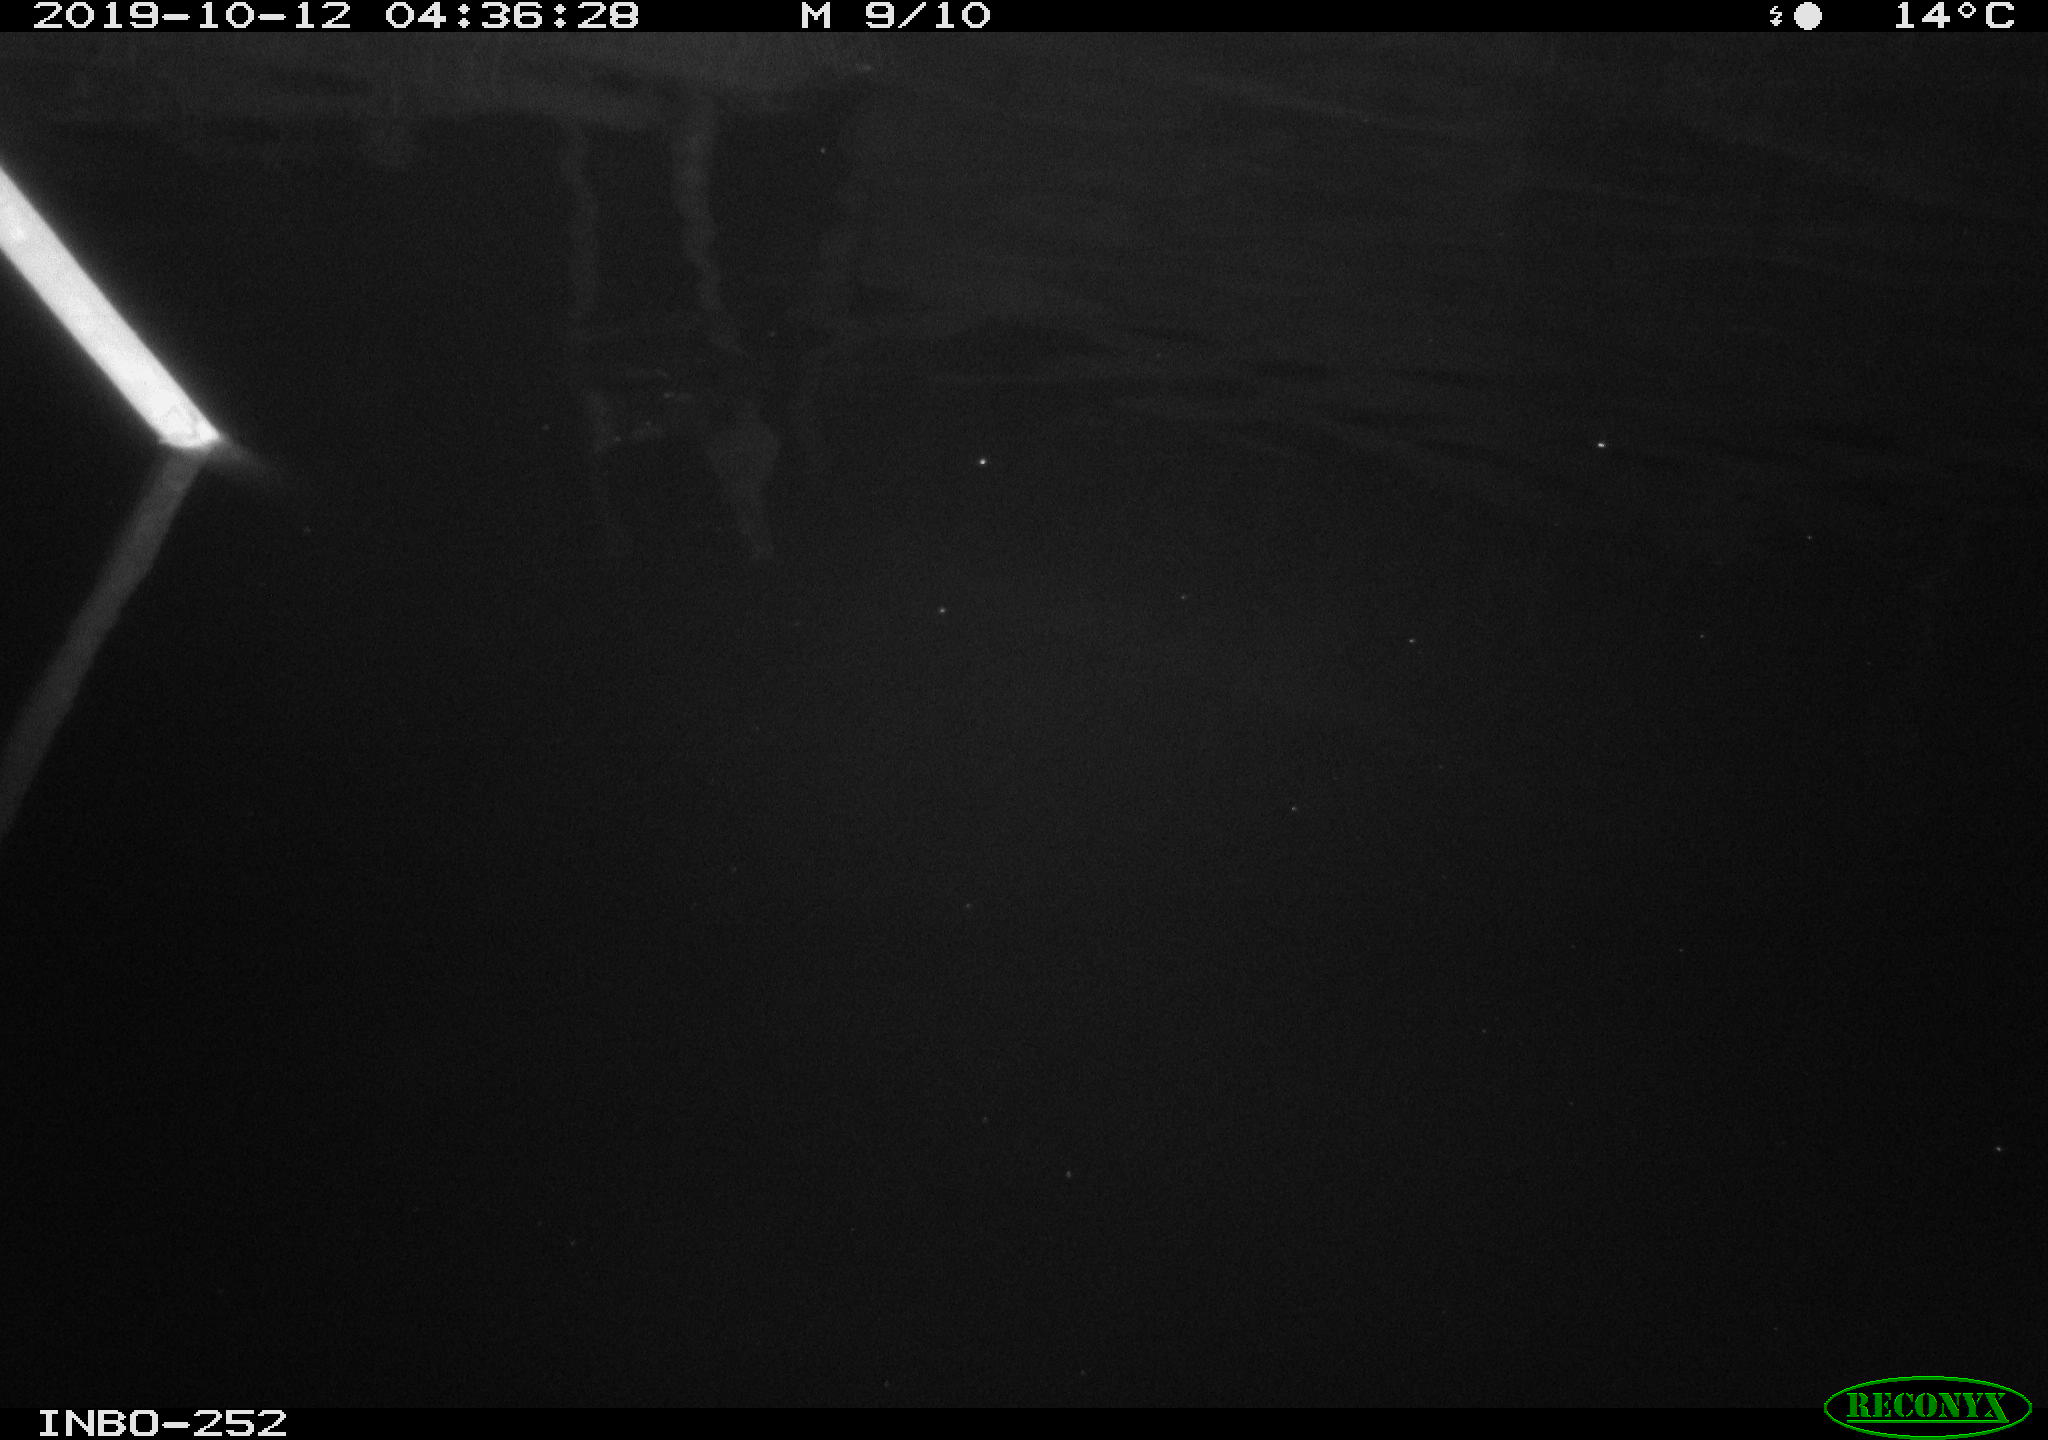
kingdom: Animalia
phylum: Chordata
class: Aves
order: Anseriformes
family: Anatidae
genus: Anas
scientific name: Anas platyrhynchos
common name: Mallard
